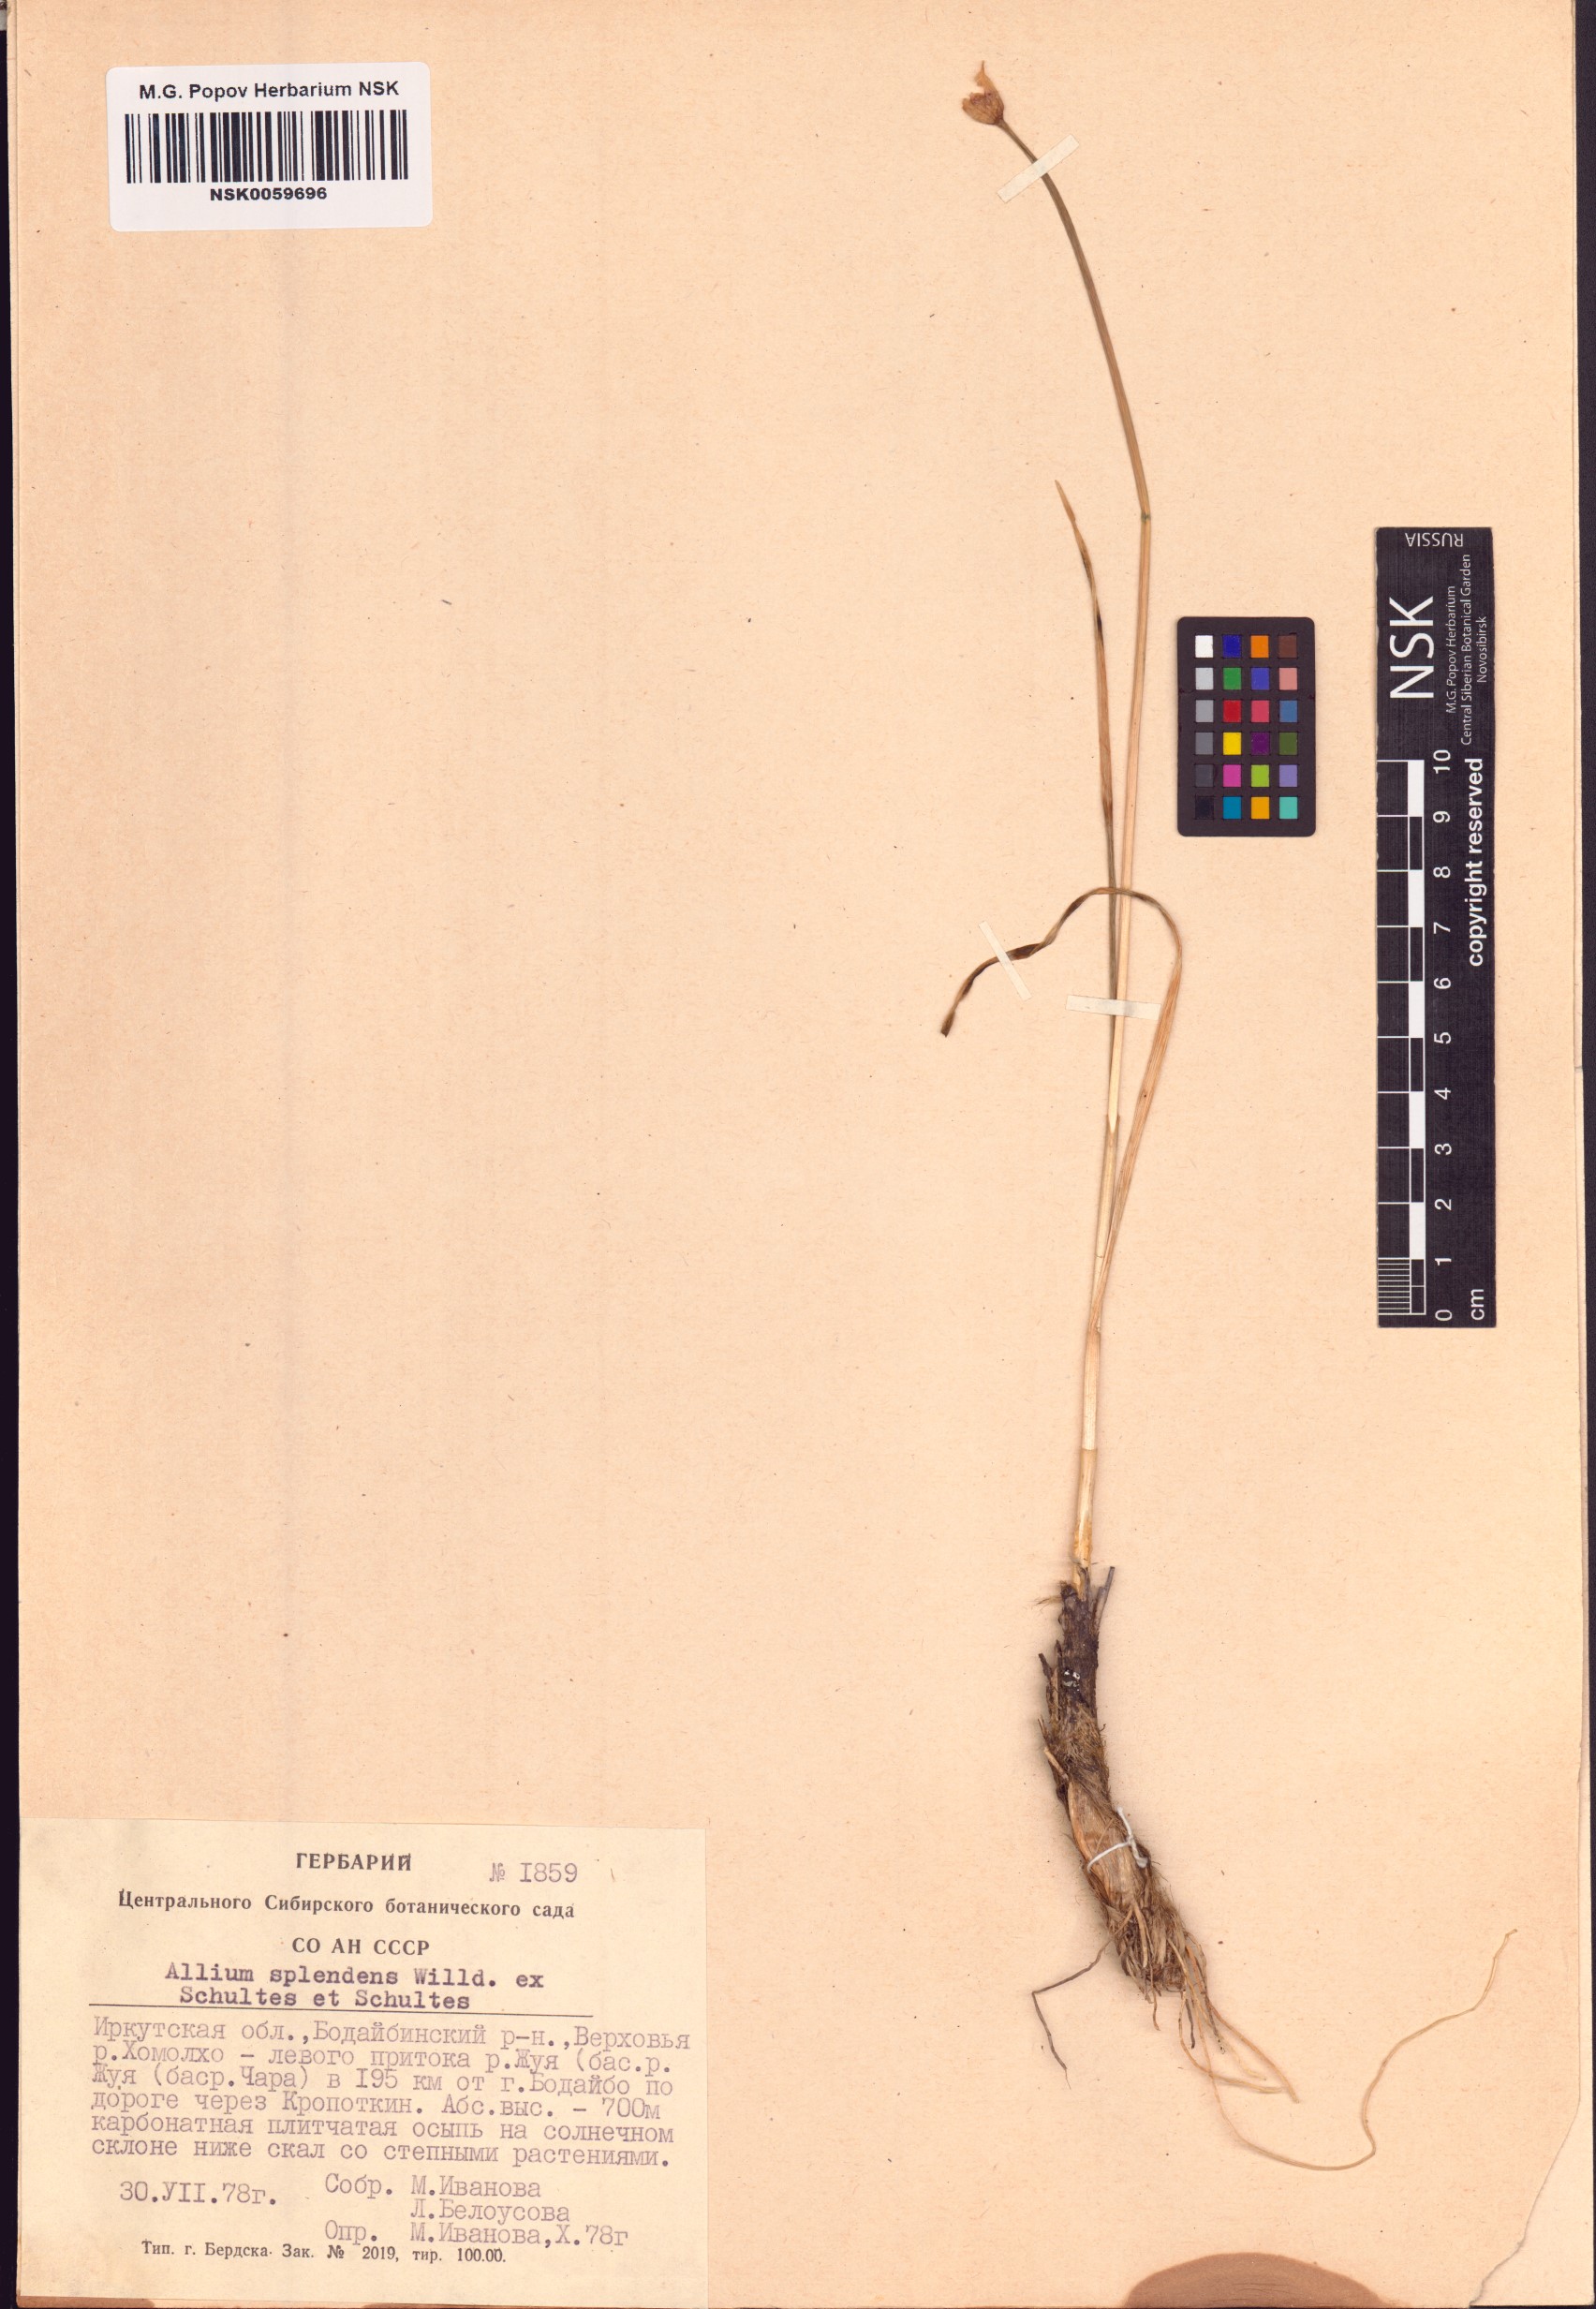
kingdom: Plantae
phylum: Tracheophyta
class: Liliopsida
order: Asparagales
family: Amaryllidaceae
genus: Allium
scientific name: Allium splendens
